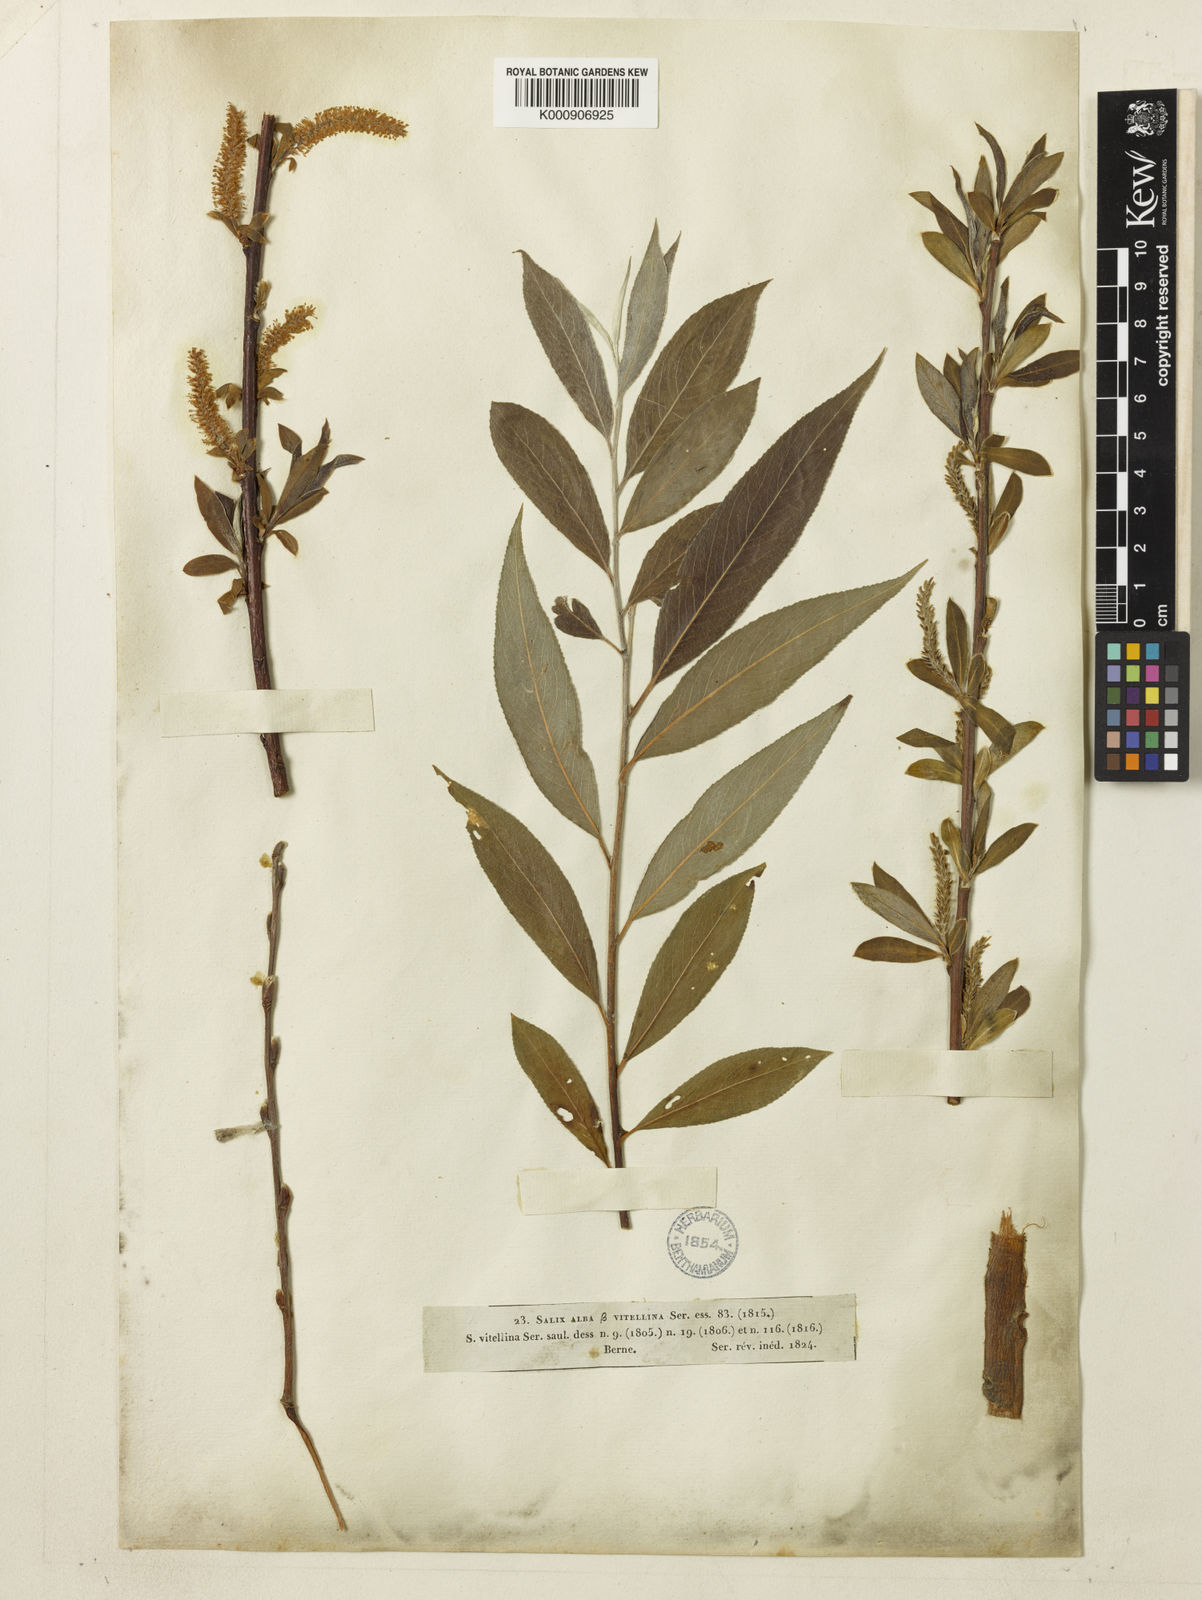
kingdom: Plantae
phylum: Tracheophyta
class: Magnoliopsida
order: Malpighiales
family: Salicaceae
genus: Salix
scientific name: Salix alba
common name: White willow
